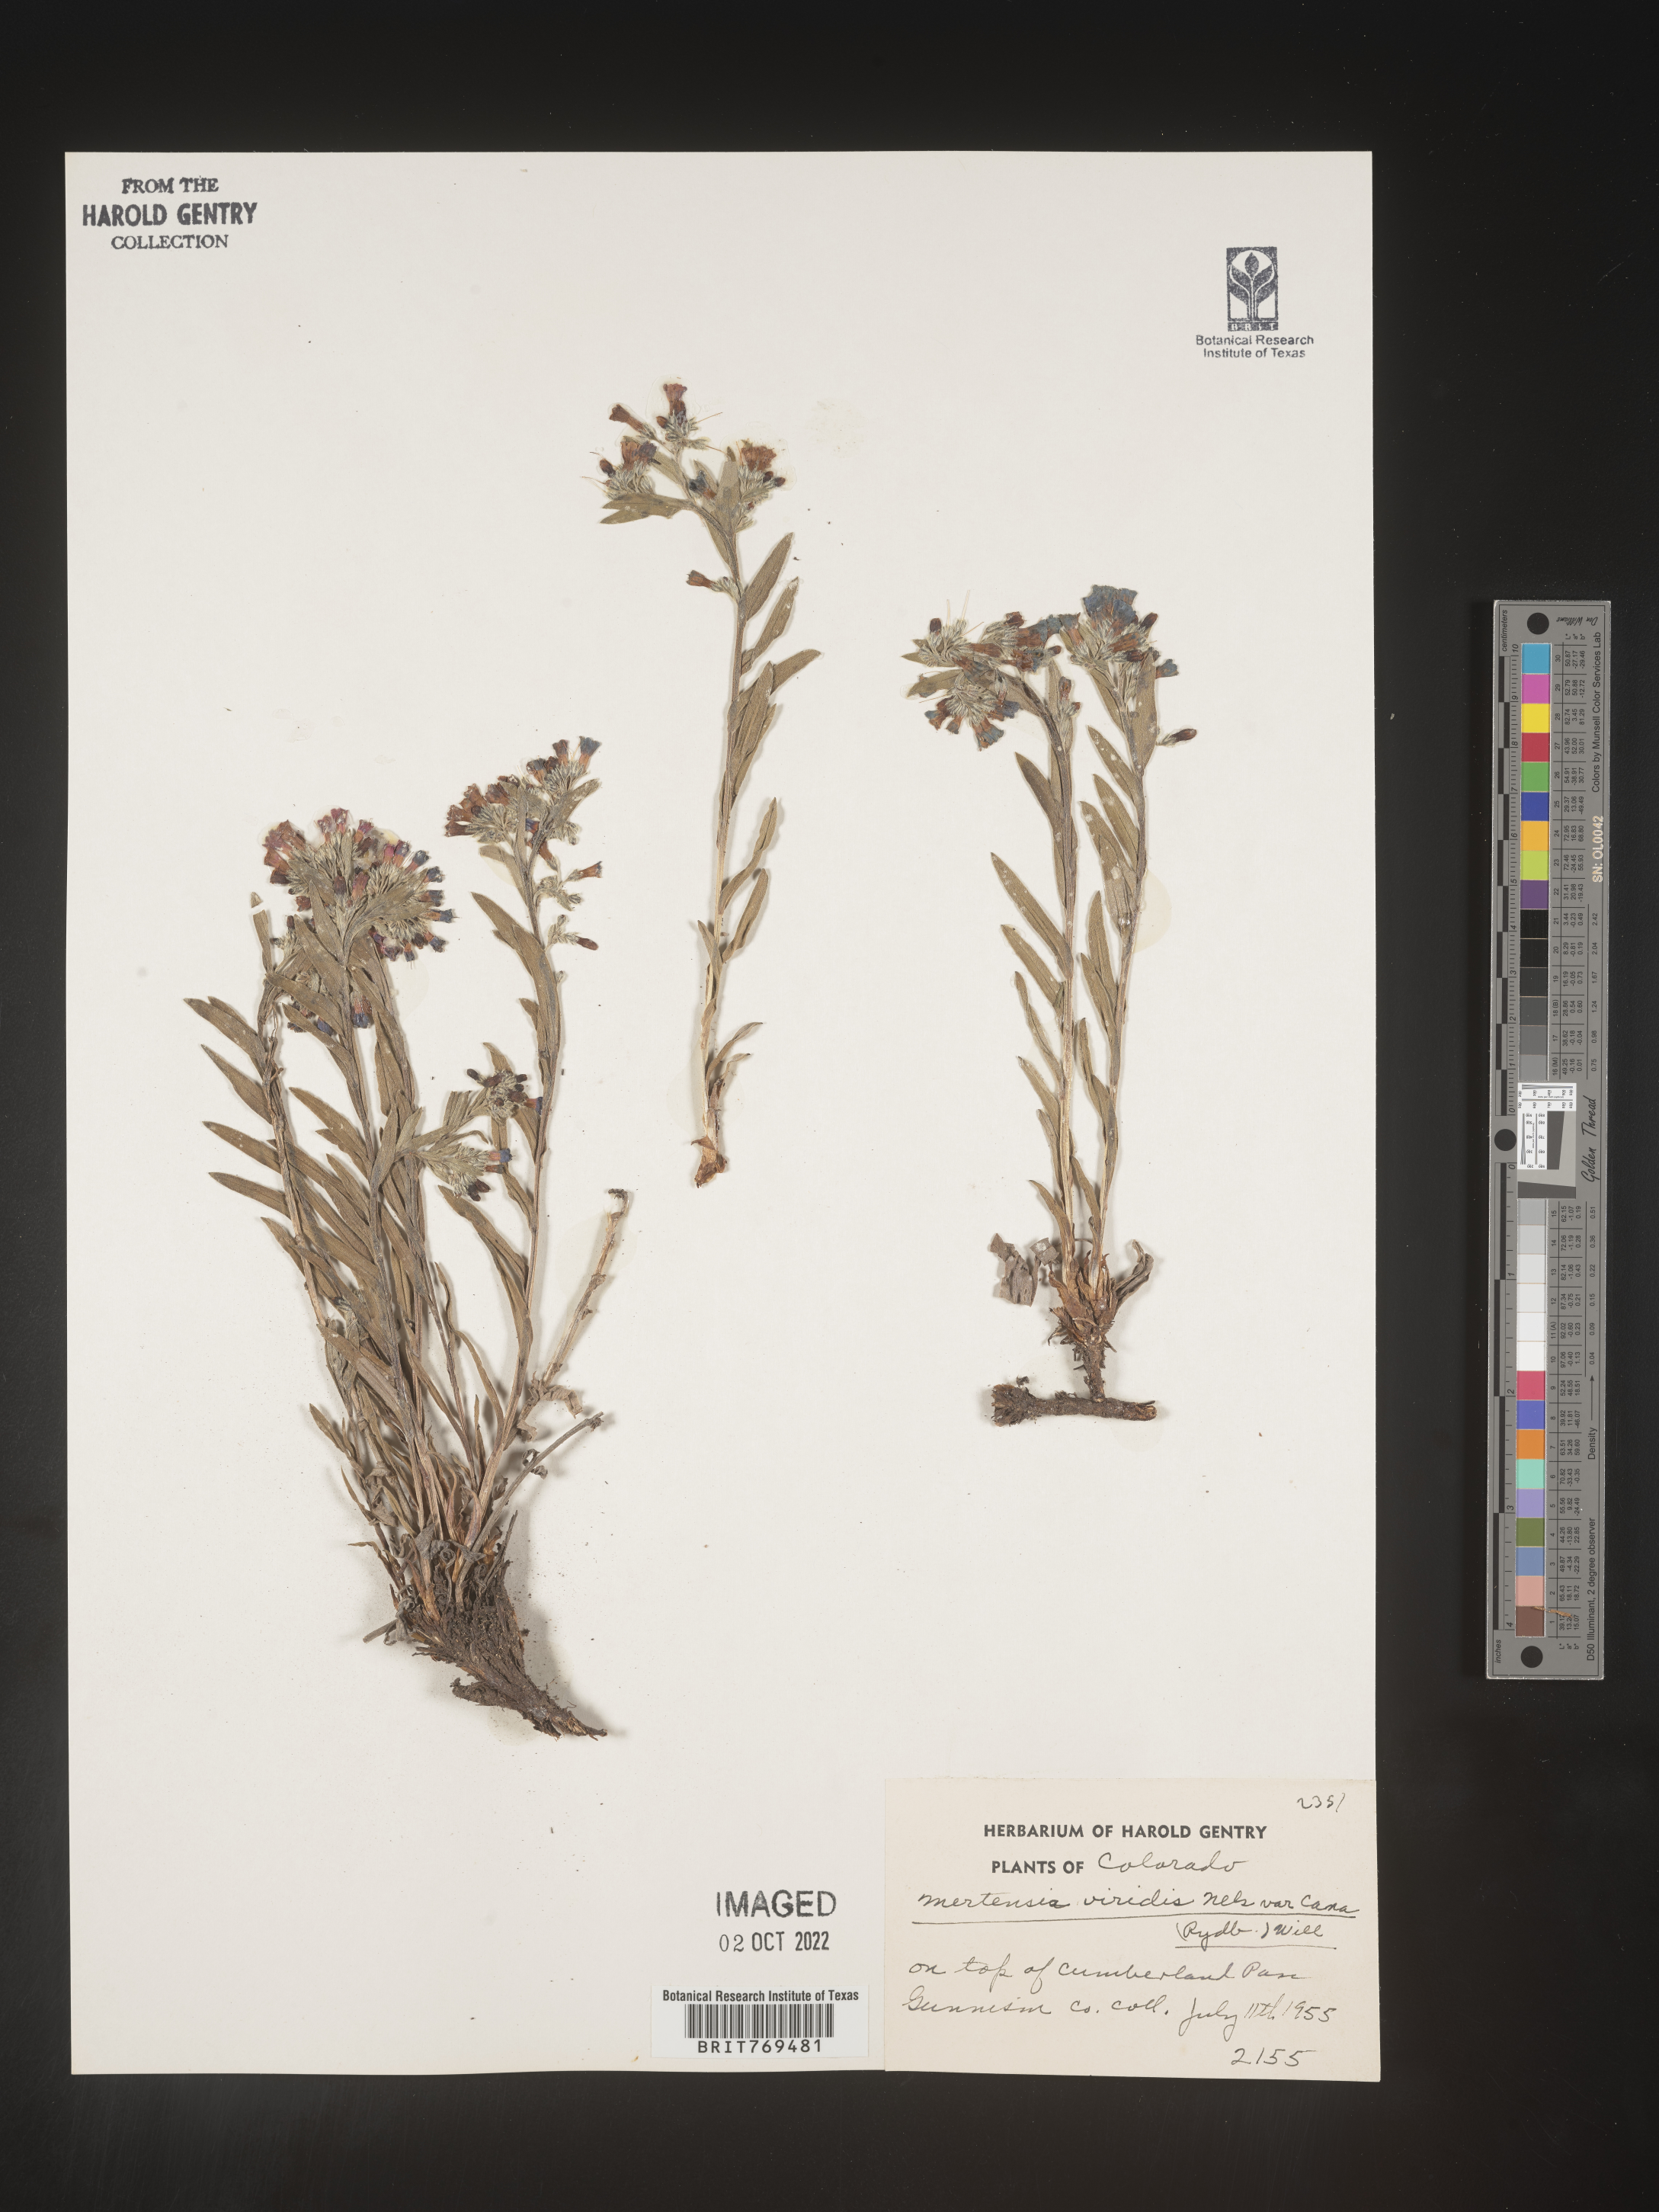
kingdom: Plantae
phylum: Tracheophyta
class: Magnoliopsida
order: Boraginales
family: Boraginaceae
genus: Mertensia
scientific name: Mertensia viridis
